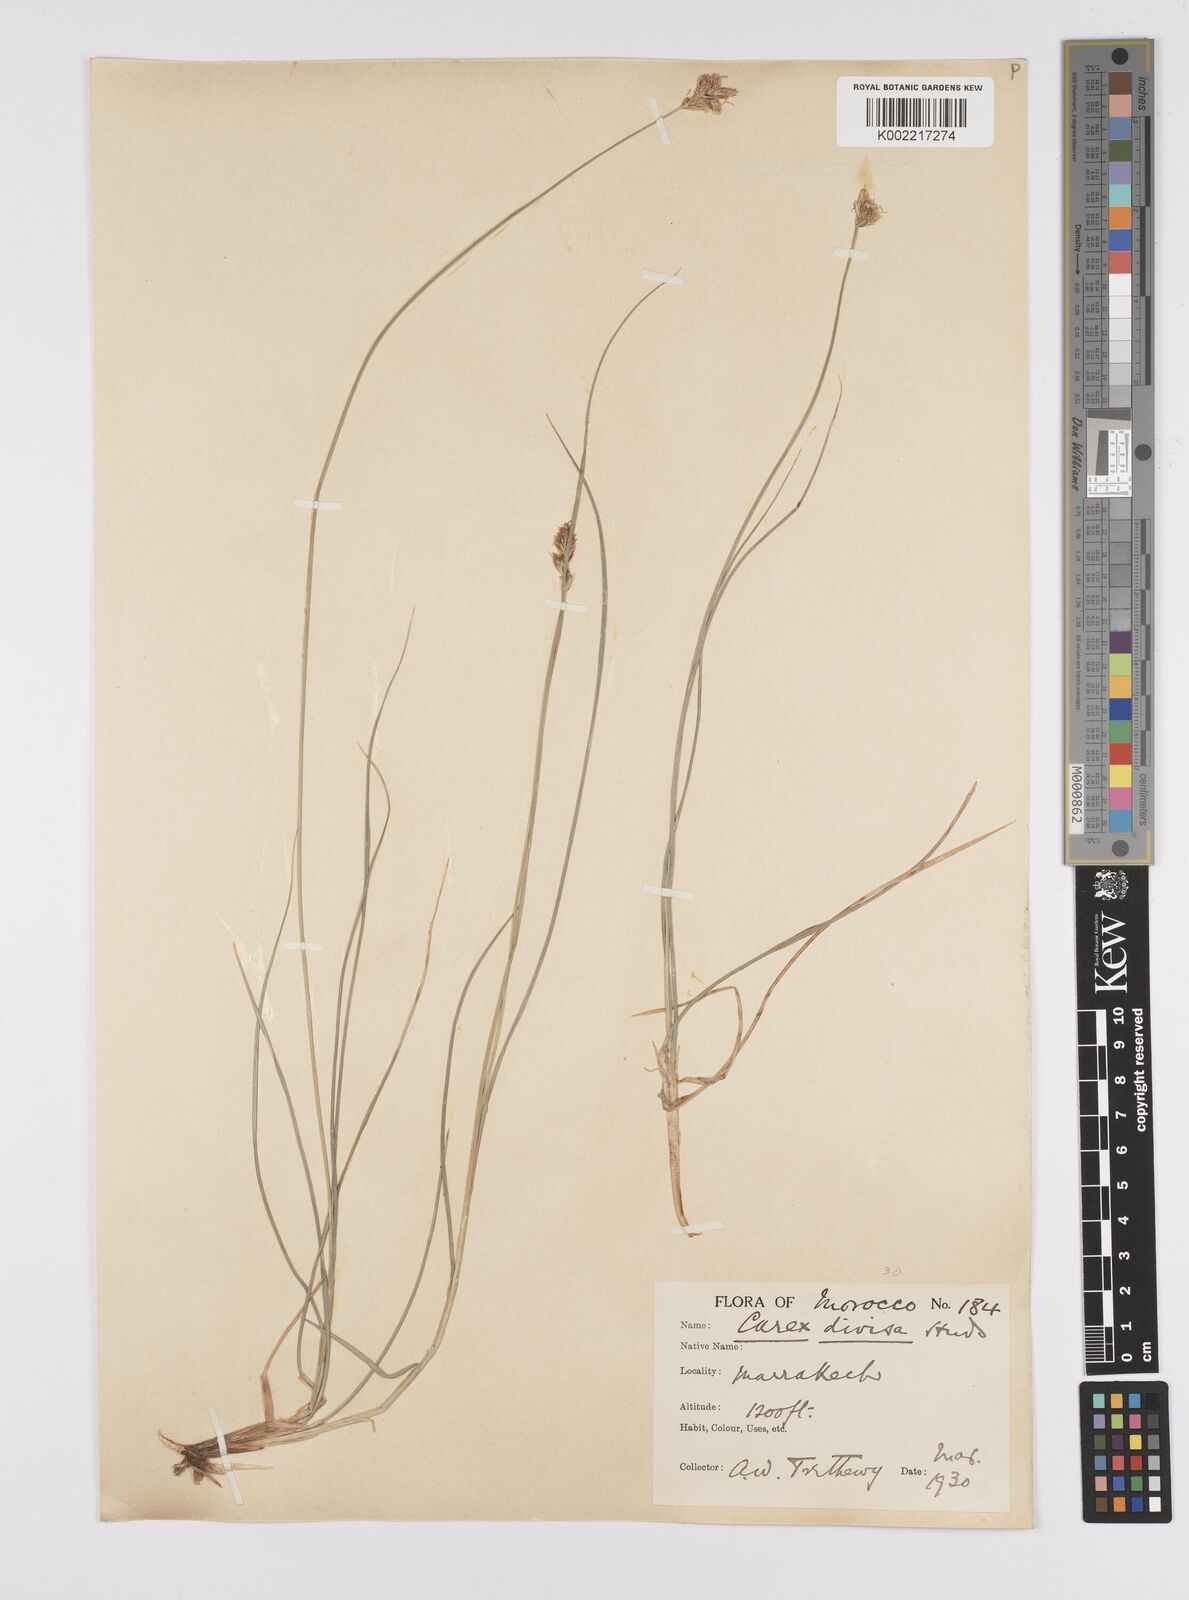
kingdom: Plantae
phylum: Tracheophyta
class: Liliopsida
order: Poales
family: Cyperaceae
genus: Carex
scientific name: Carex divisa
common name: Divided sedge
